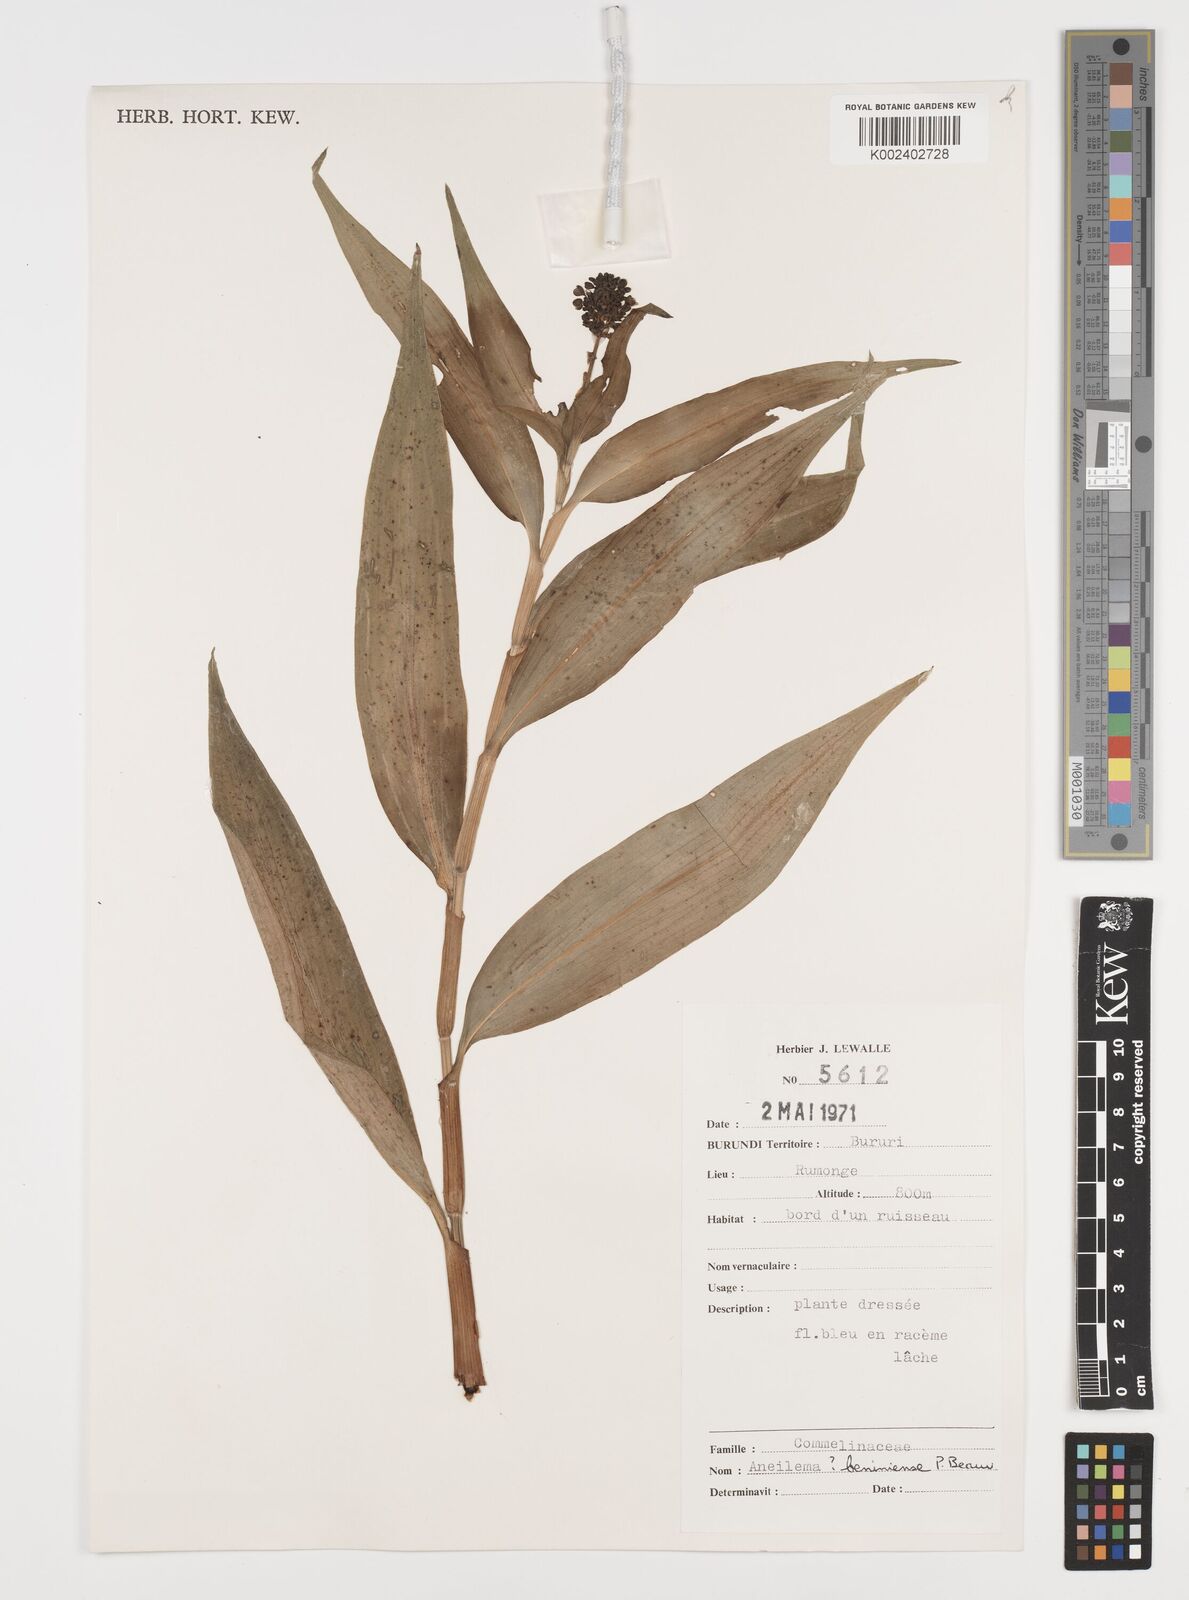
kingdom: Plantae
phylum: Tracheophyta
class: Liliopsida
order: Commelinales
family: Commelinaceae
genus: Aneilema
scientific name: Aneilema beniniense
